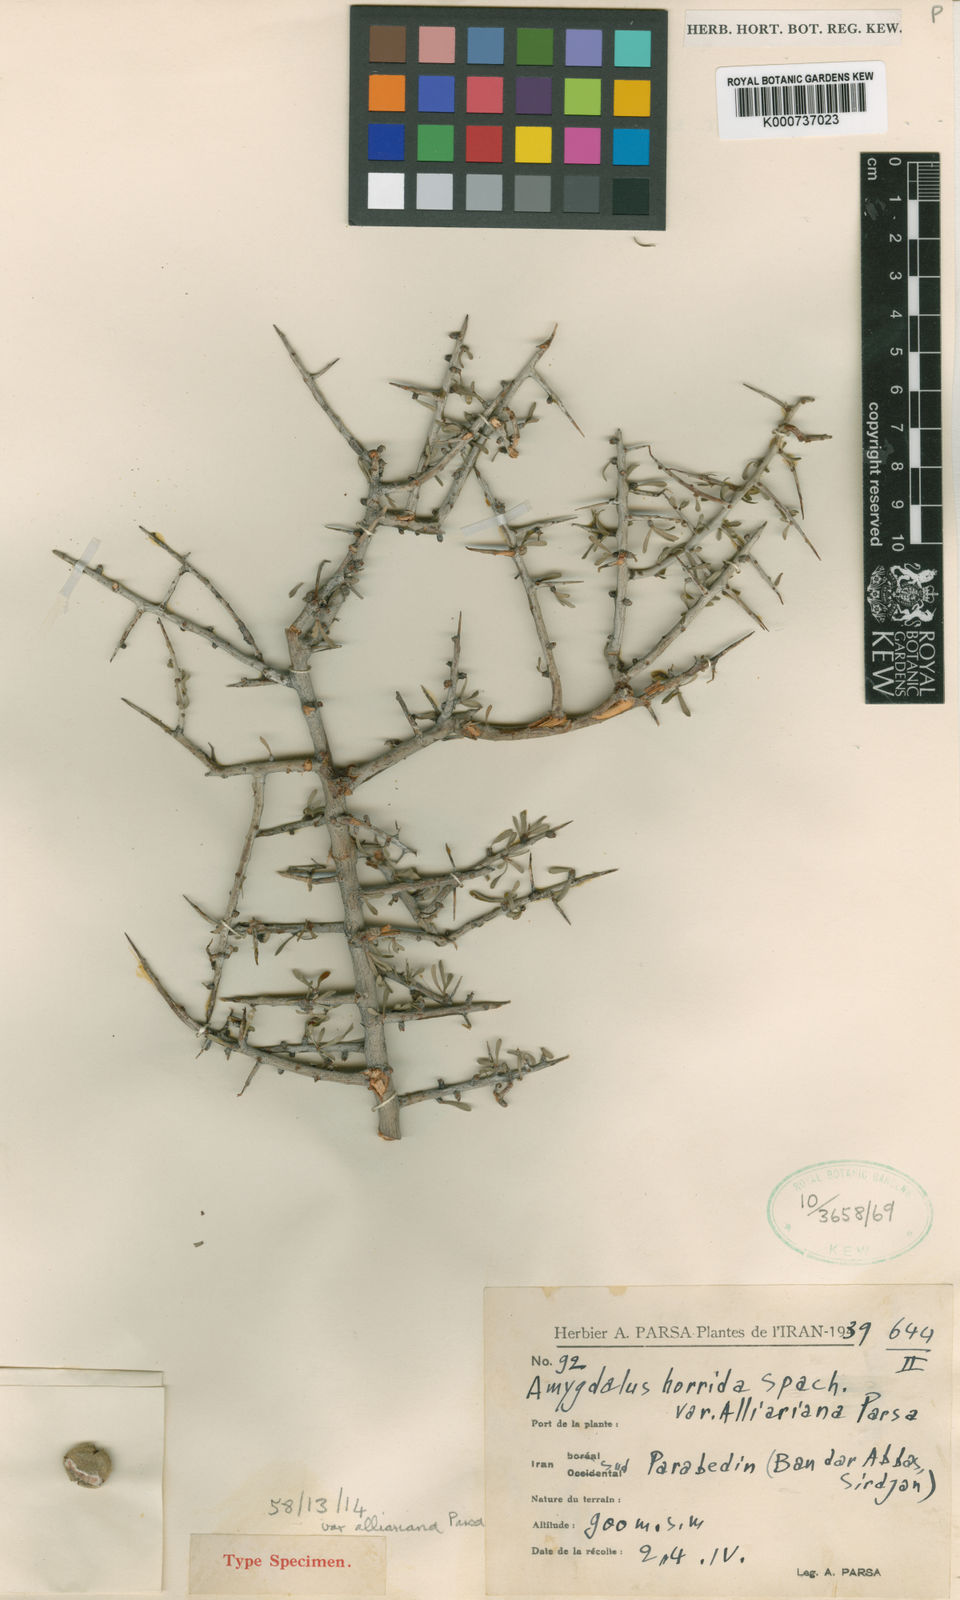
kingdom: Plantae
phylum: Tracheophyta
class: Magnoliopsida
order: Rosales
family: Rosaceae
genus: Prunus
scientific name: Prunus
